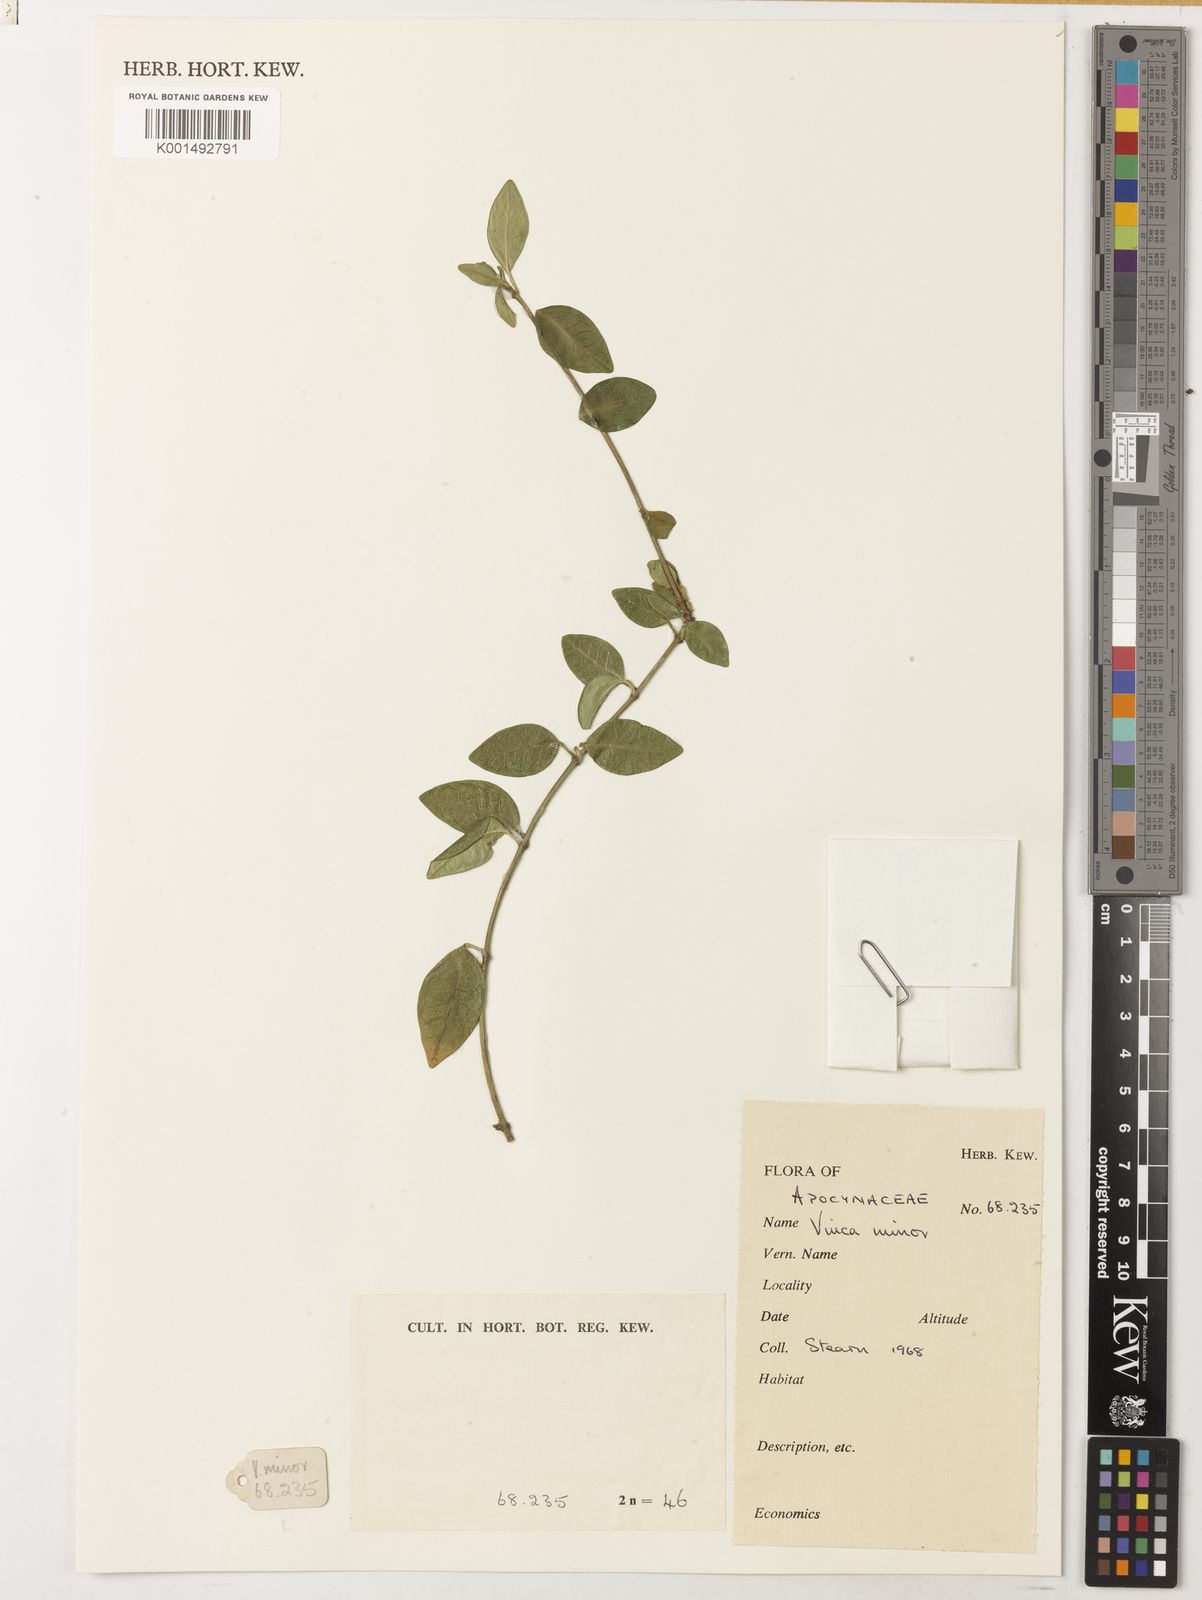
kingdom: Plantae
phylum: Tracheophyta
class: Magnoliopsida
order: Gentianales
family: Apocynaceae
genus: Vinca
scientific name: Vinca minor
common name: Lesser periwinkle
